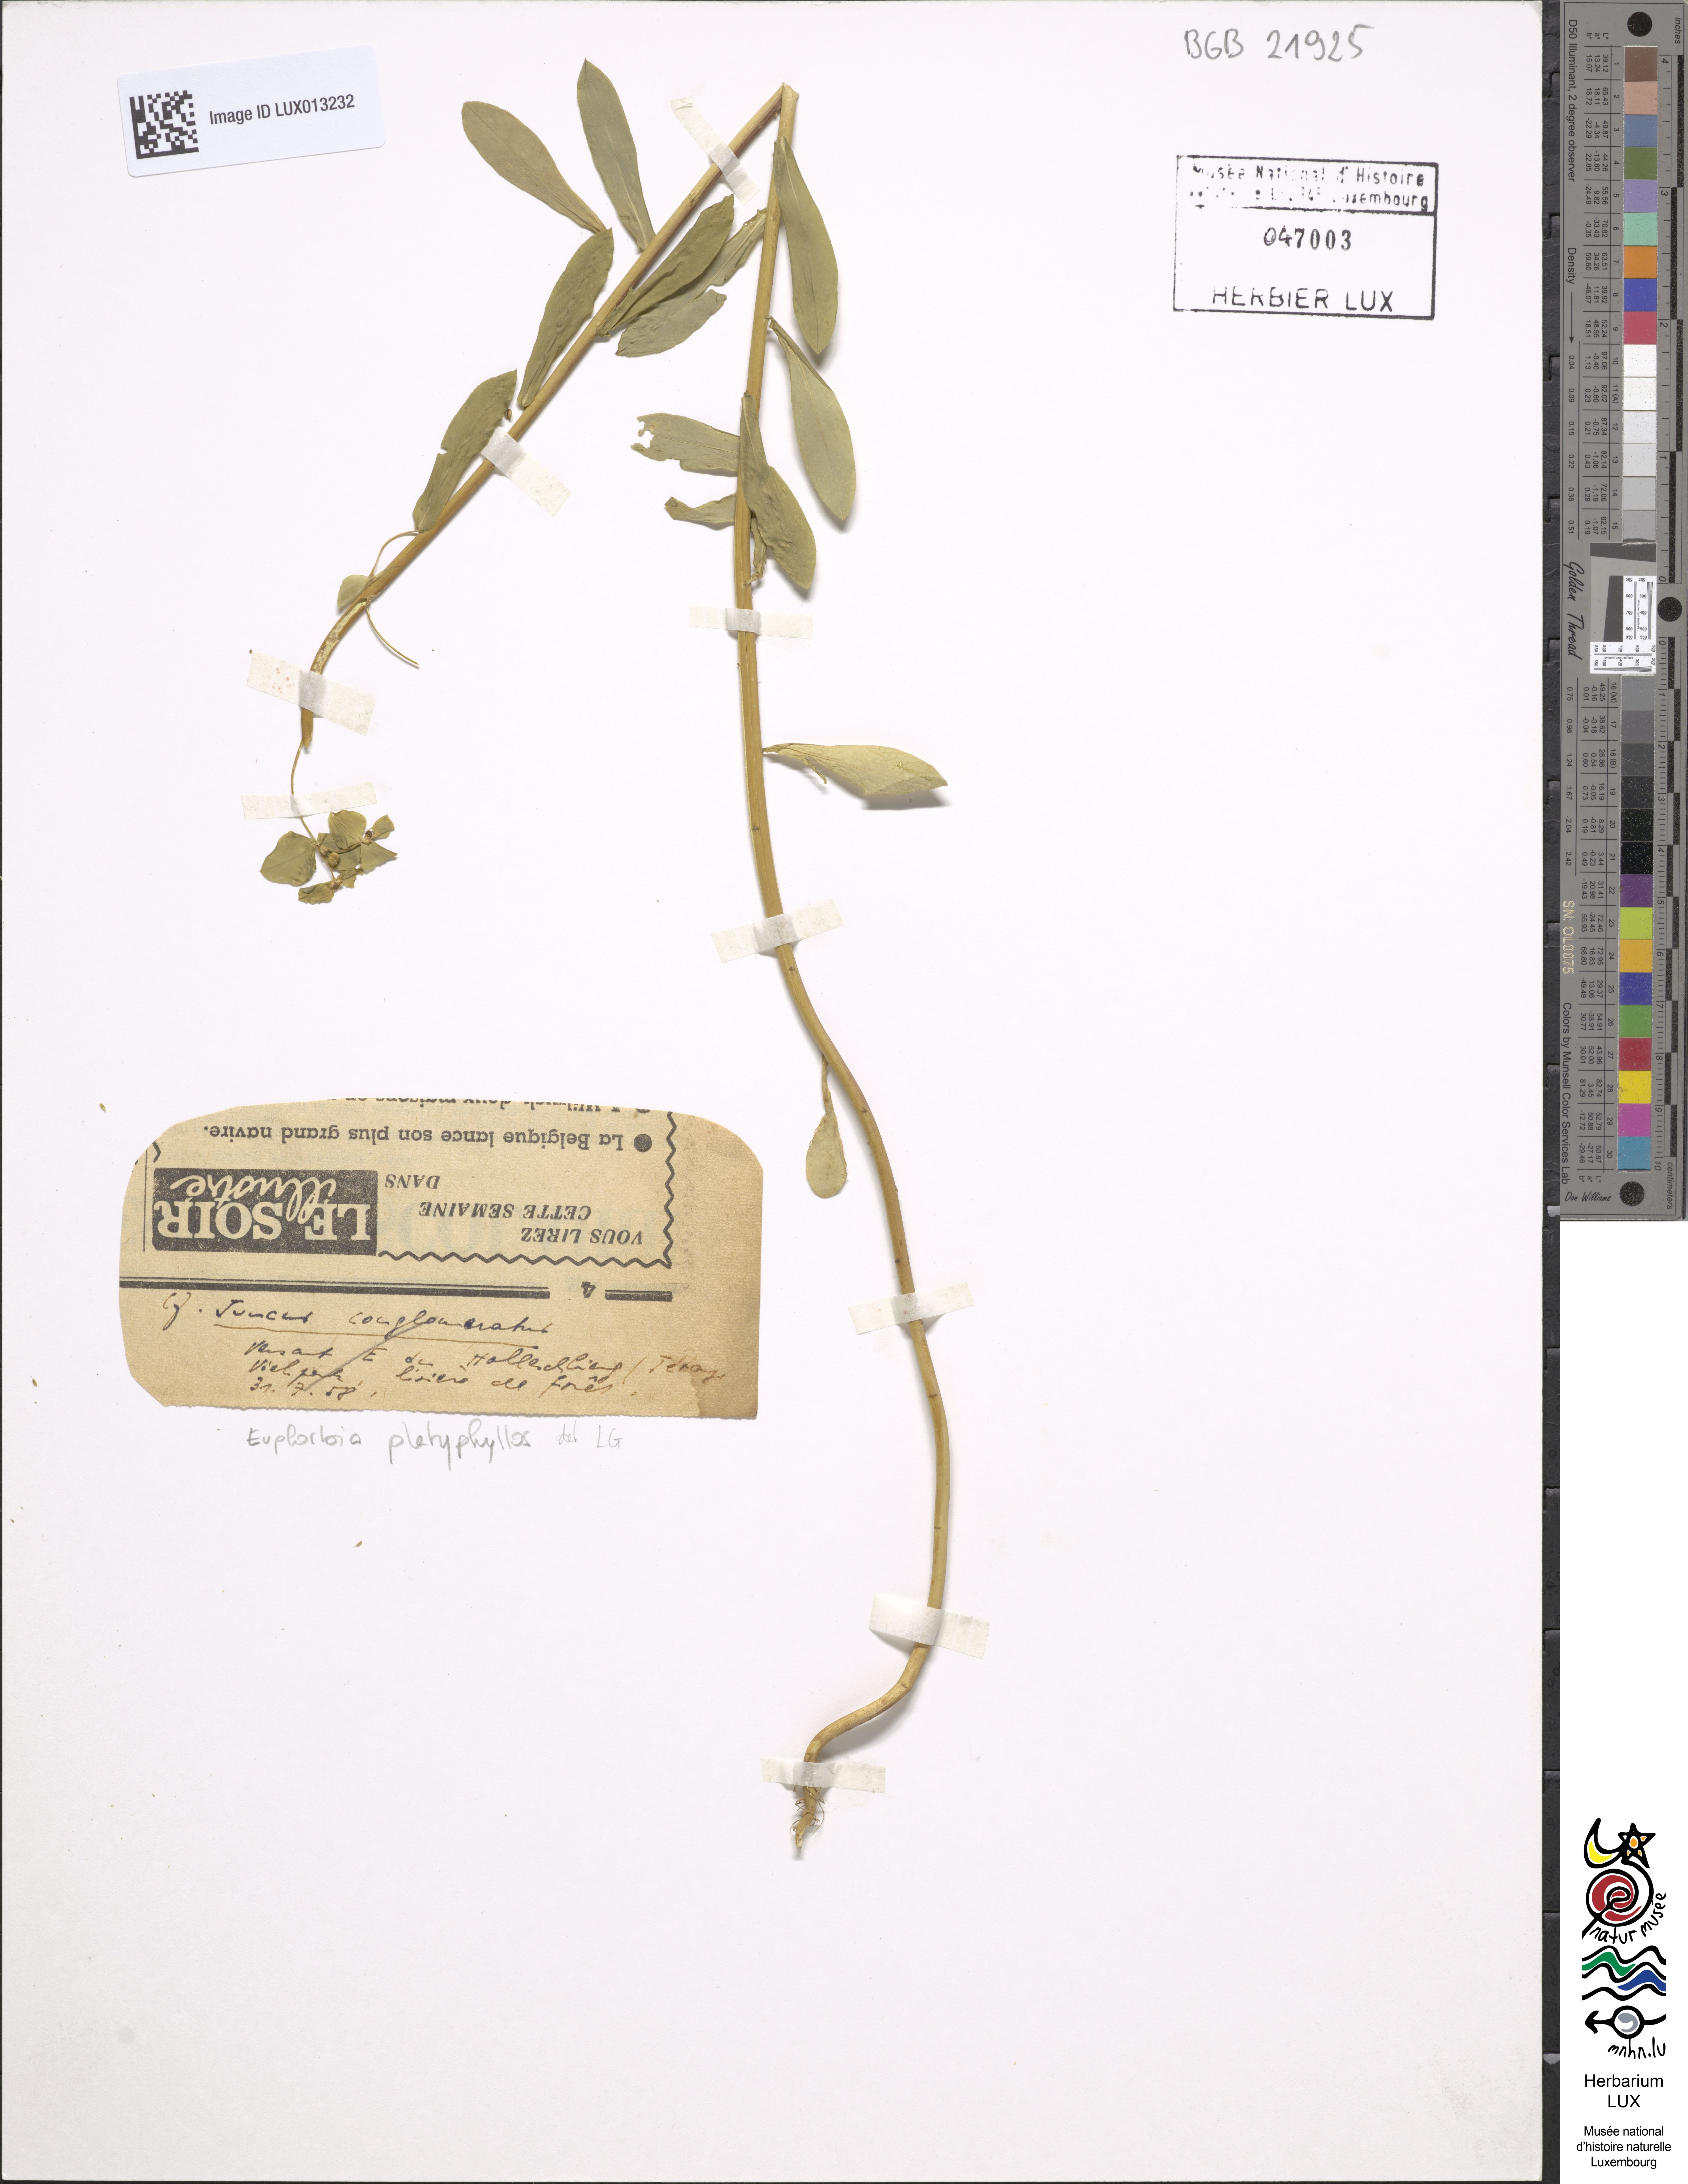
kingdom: Plantae
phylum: Tracheophyta
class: Magnoliopsida
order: Malpighiales
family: Euphorbiaceae
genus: Euphorbia
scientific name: Euphorbia platyphyllos
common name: Broad-leaved spurge
